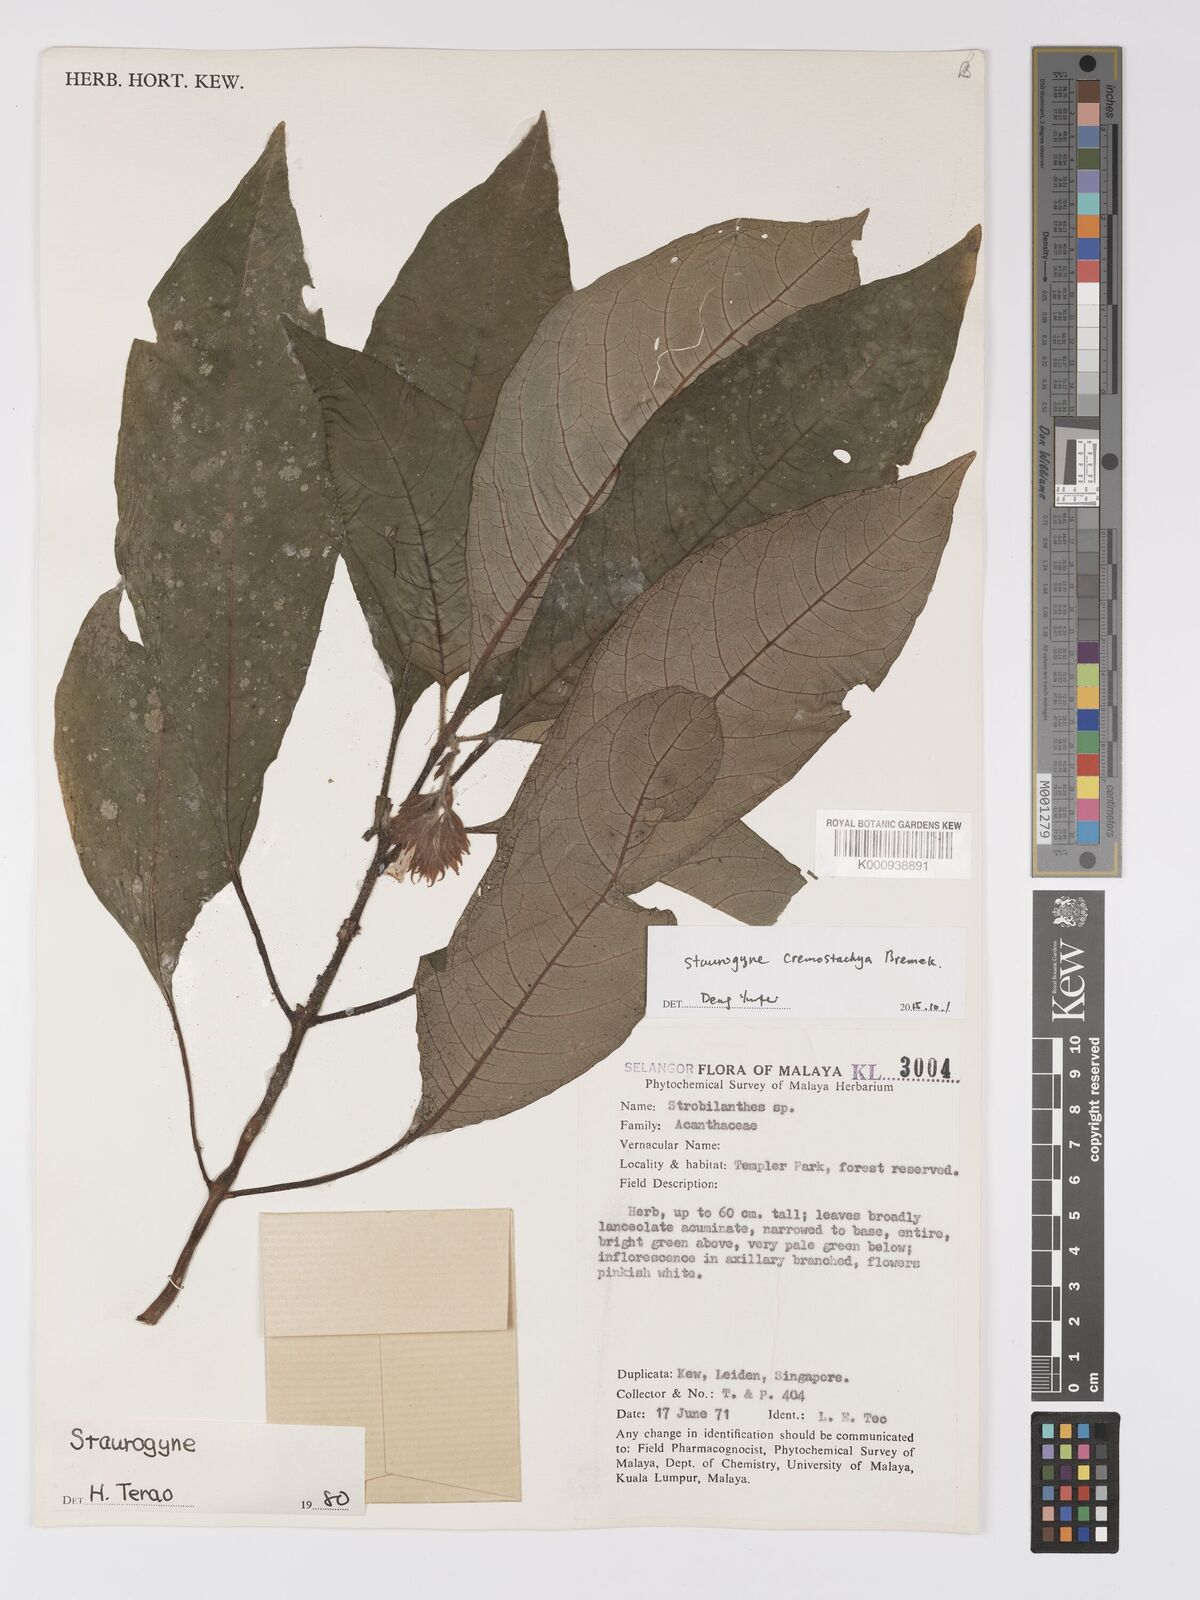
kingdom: Plantae
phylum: Tracheophyta
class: Magnoliopsida
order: Lamiales
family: Acanthaceae
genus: Staurogyne
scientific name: Staurogyne comosa
